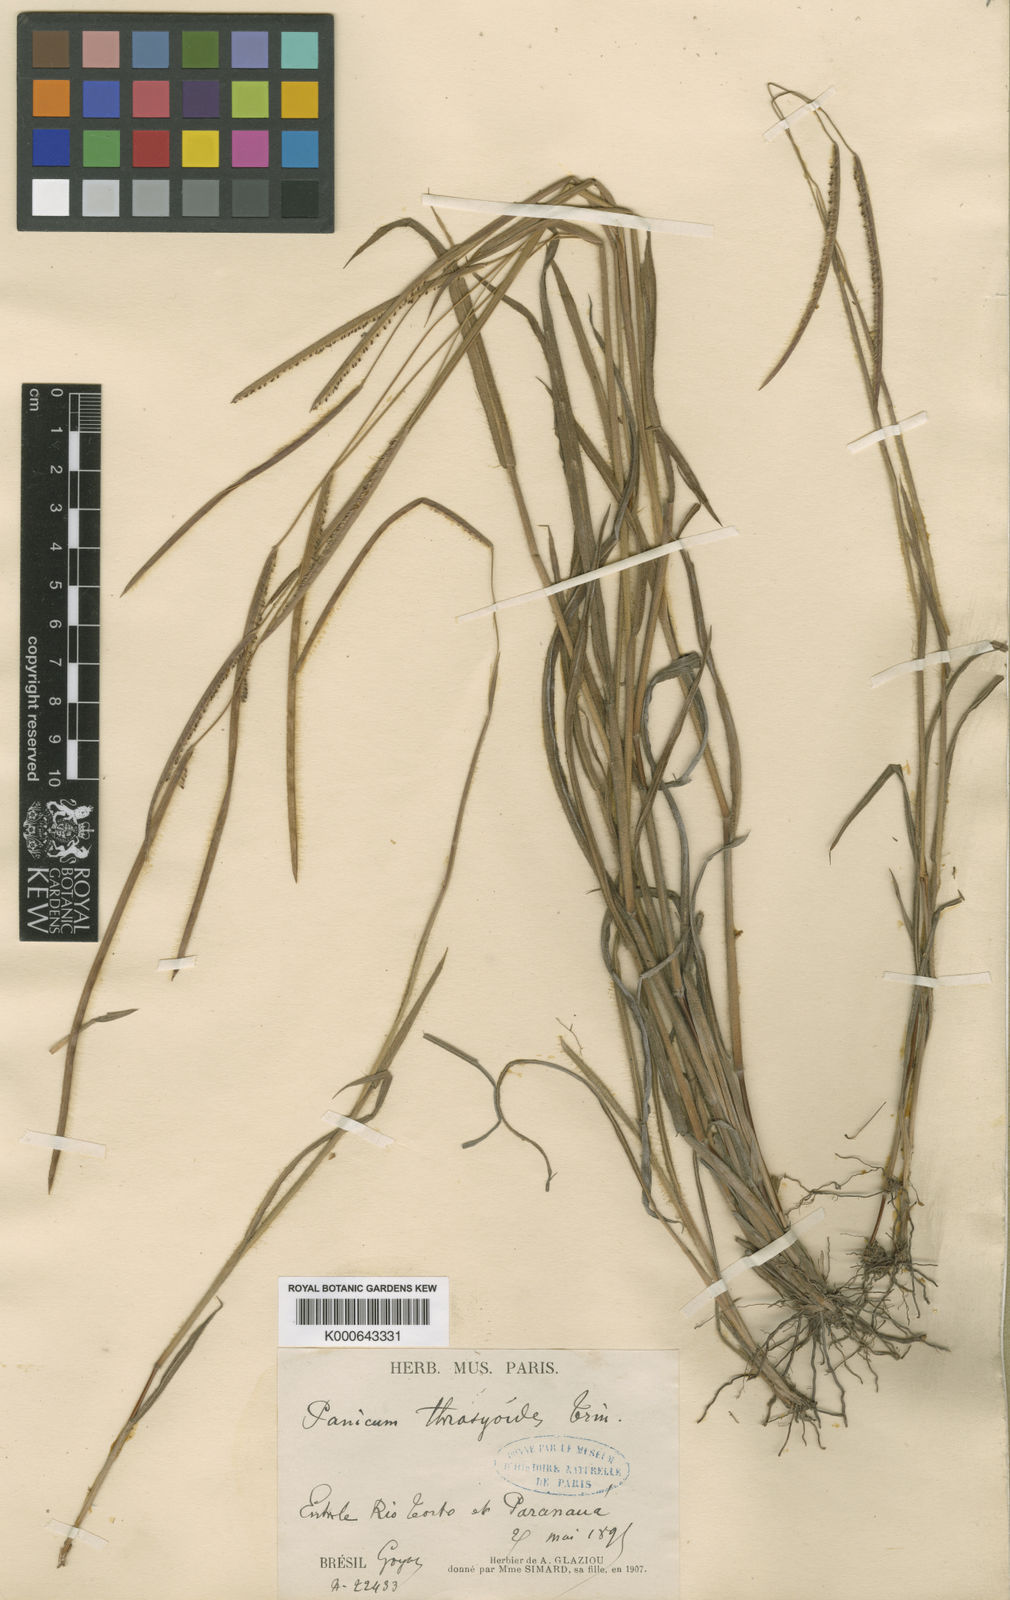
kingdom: Plantae
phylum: Tracheophyta
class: Liliopsida
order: Poales
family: Poaceae
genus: Paspalum
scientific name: Paspalum glaziovii
